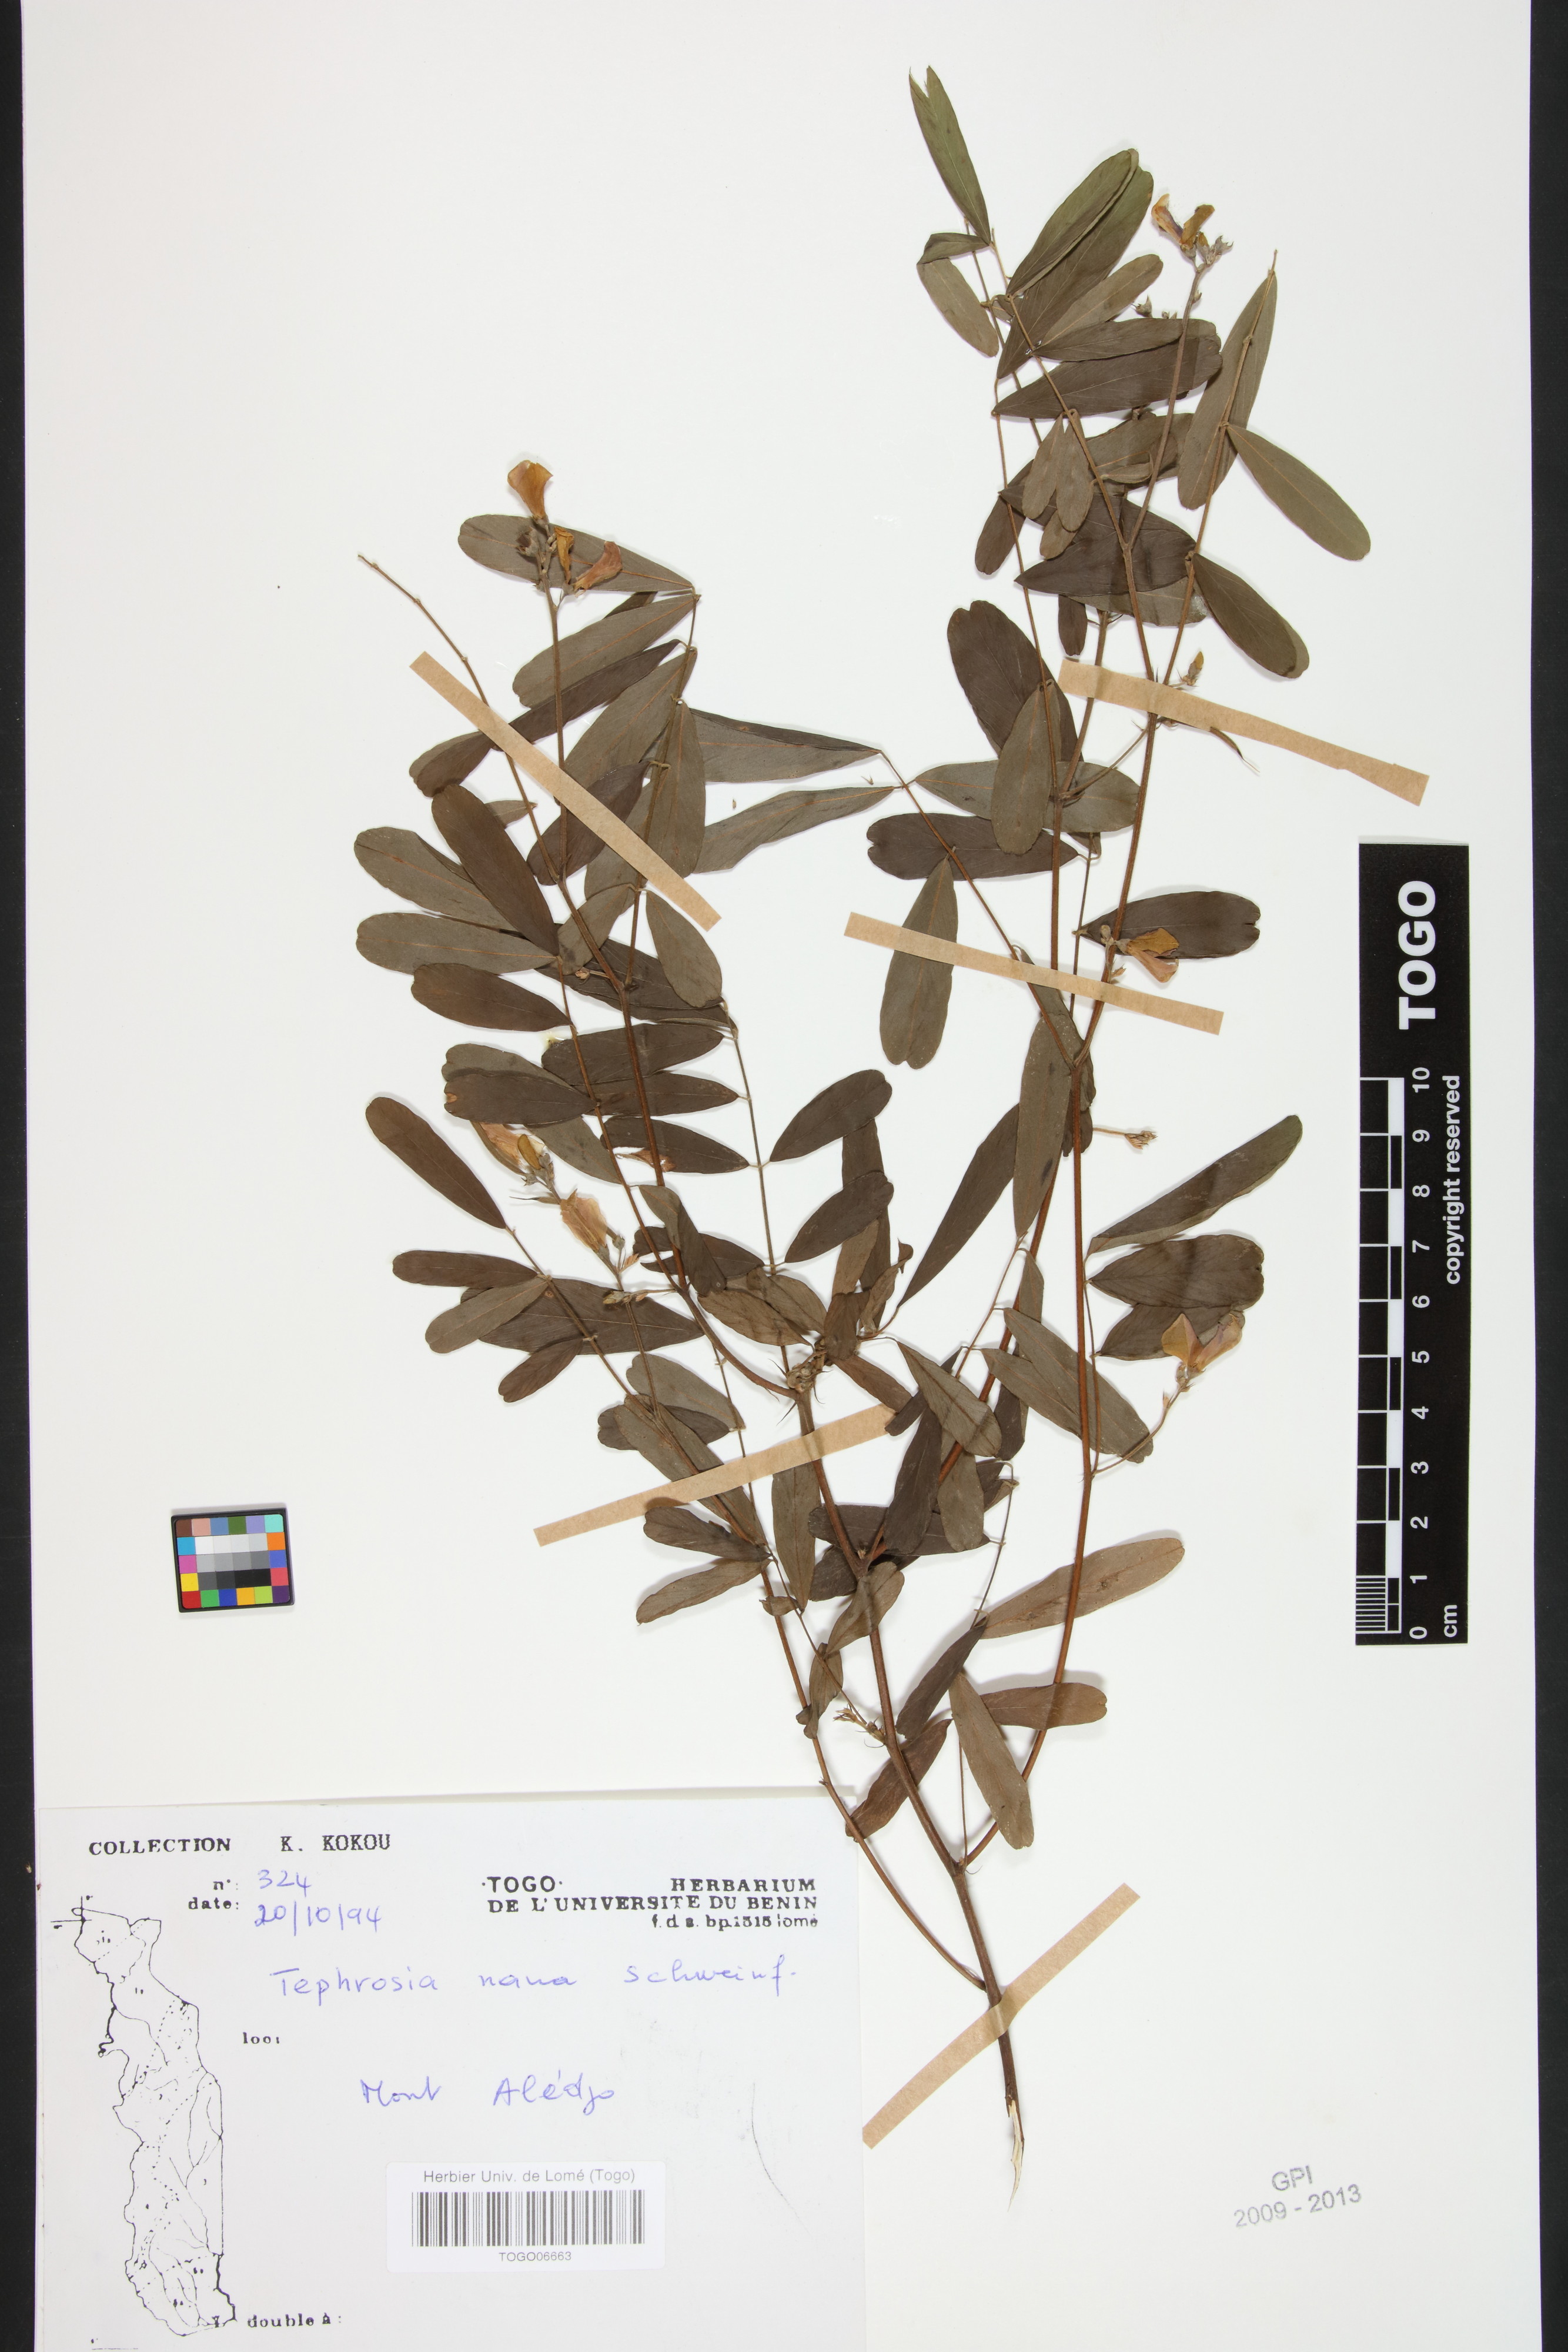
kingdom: Plantae
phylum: Tracheophyta
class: Magnoliopsida
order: Fabales
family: Fabaceae
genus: Tephrosia
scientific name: Tephrosia nana
